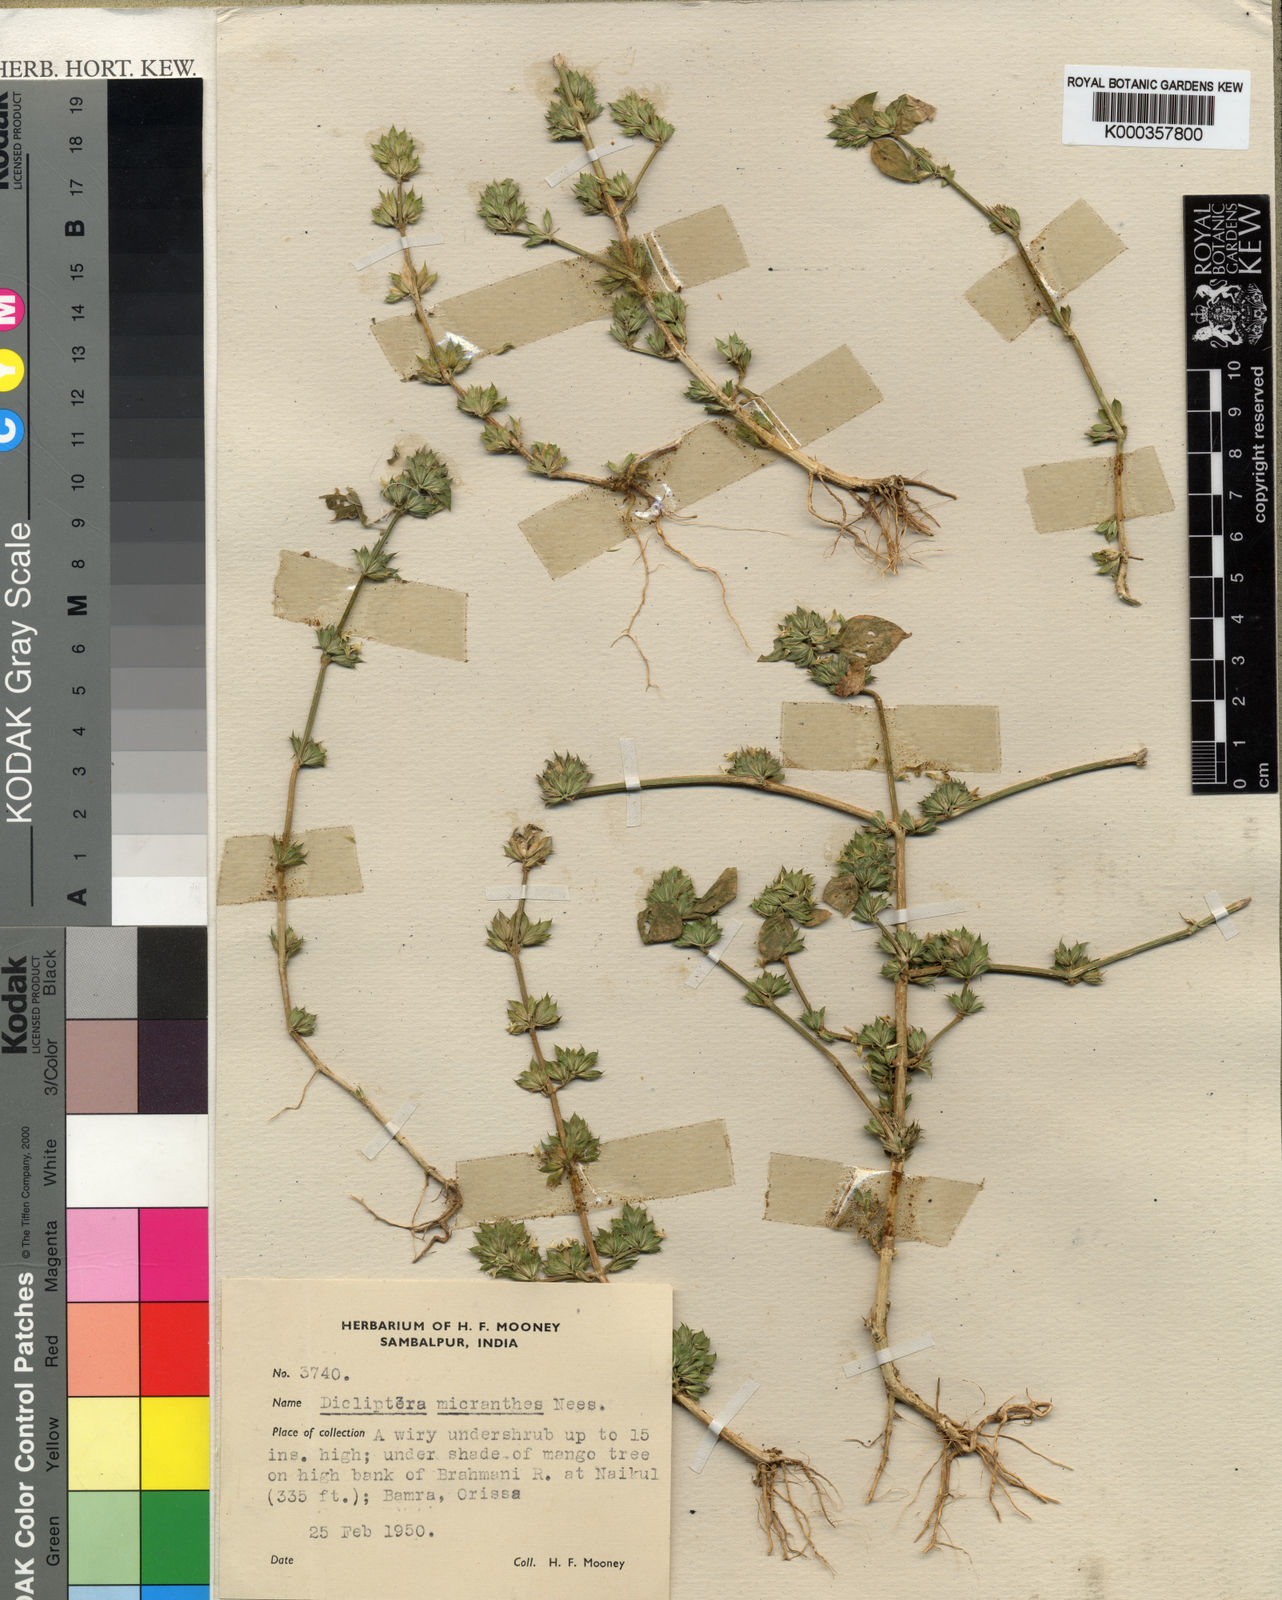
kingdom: Plantae
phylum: Tracheophyta
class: Magnoliopsida
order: Lamiales
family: Acanthaceae
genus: Dicliptera
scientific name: Dicliptera heterostegia
